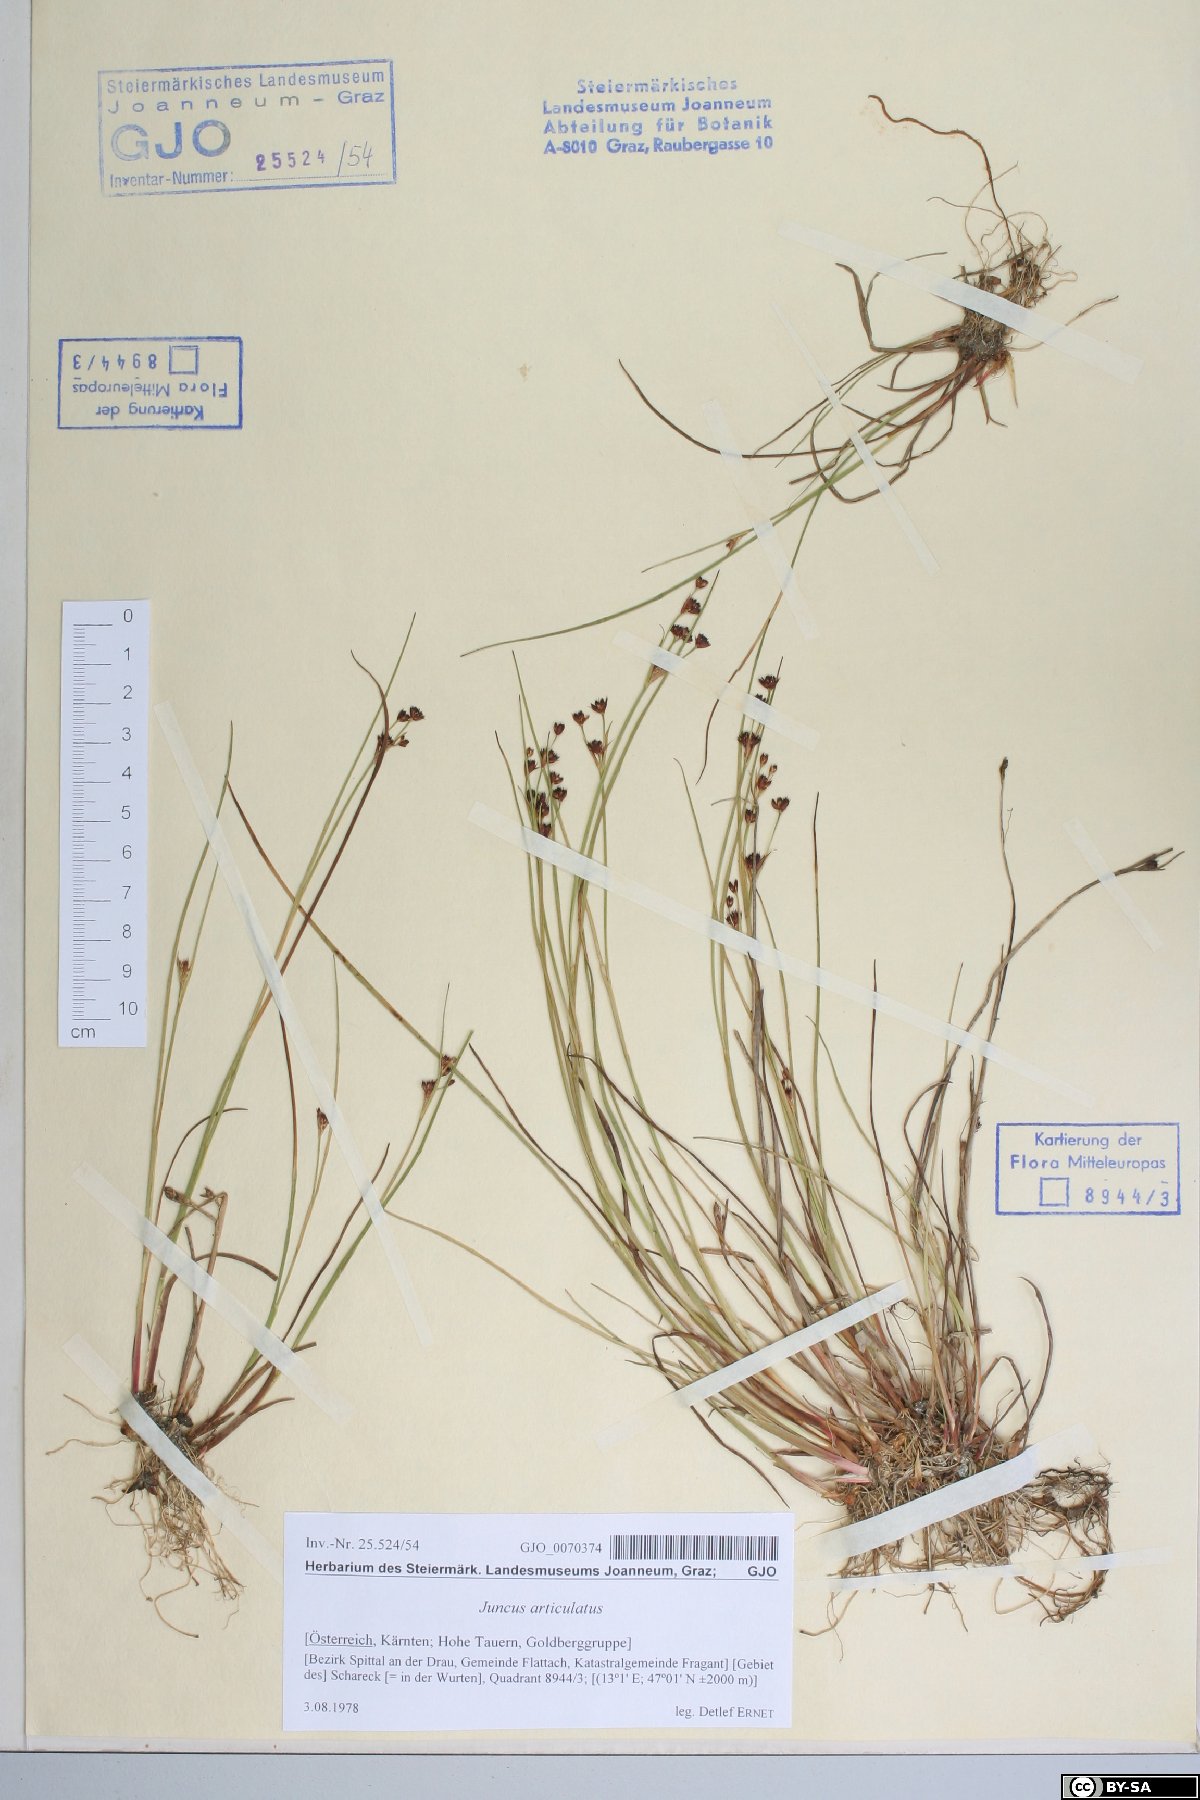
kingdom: Plantae
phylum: Tracheophyta
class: Liliopsida
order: Poales
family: Juncaceae
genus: Juncus
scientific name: Juncus articulatus
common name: Jointed rush
